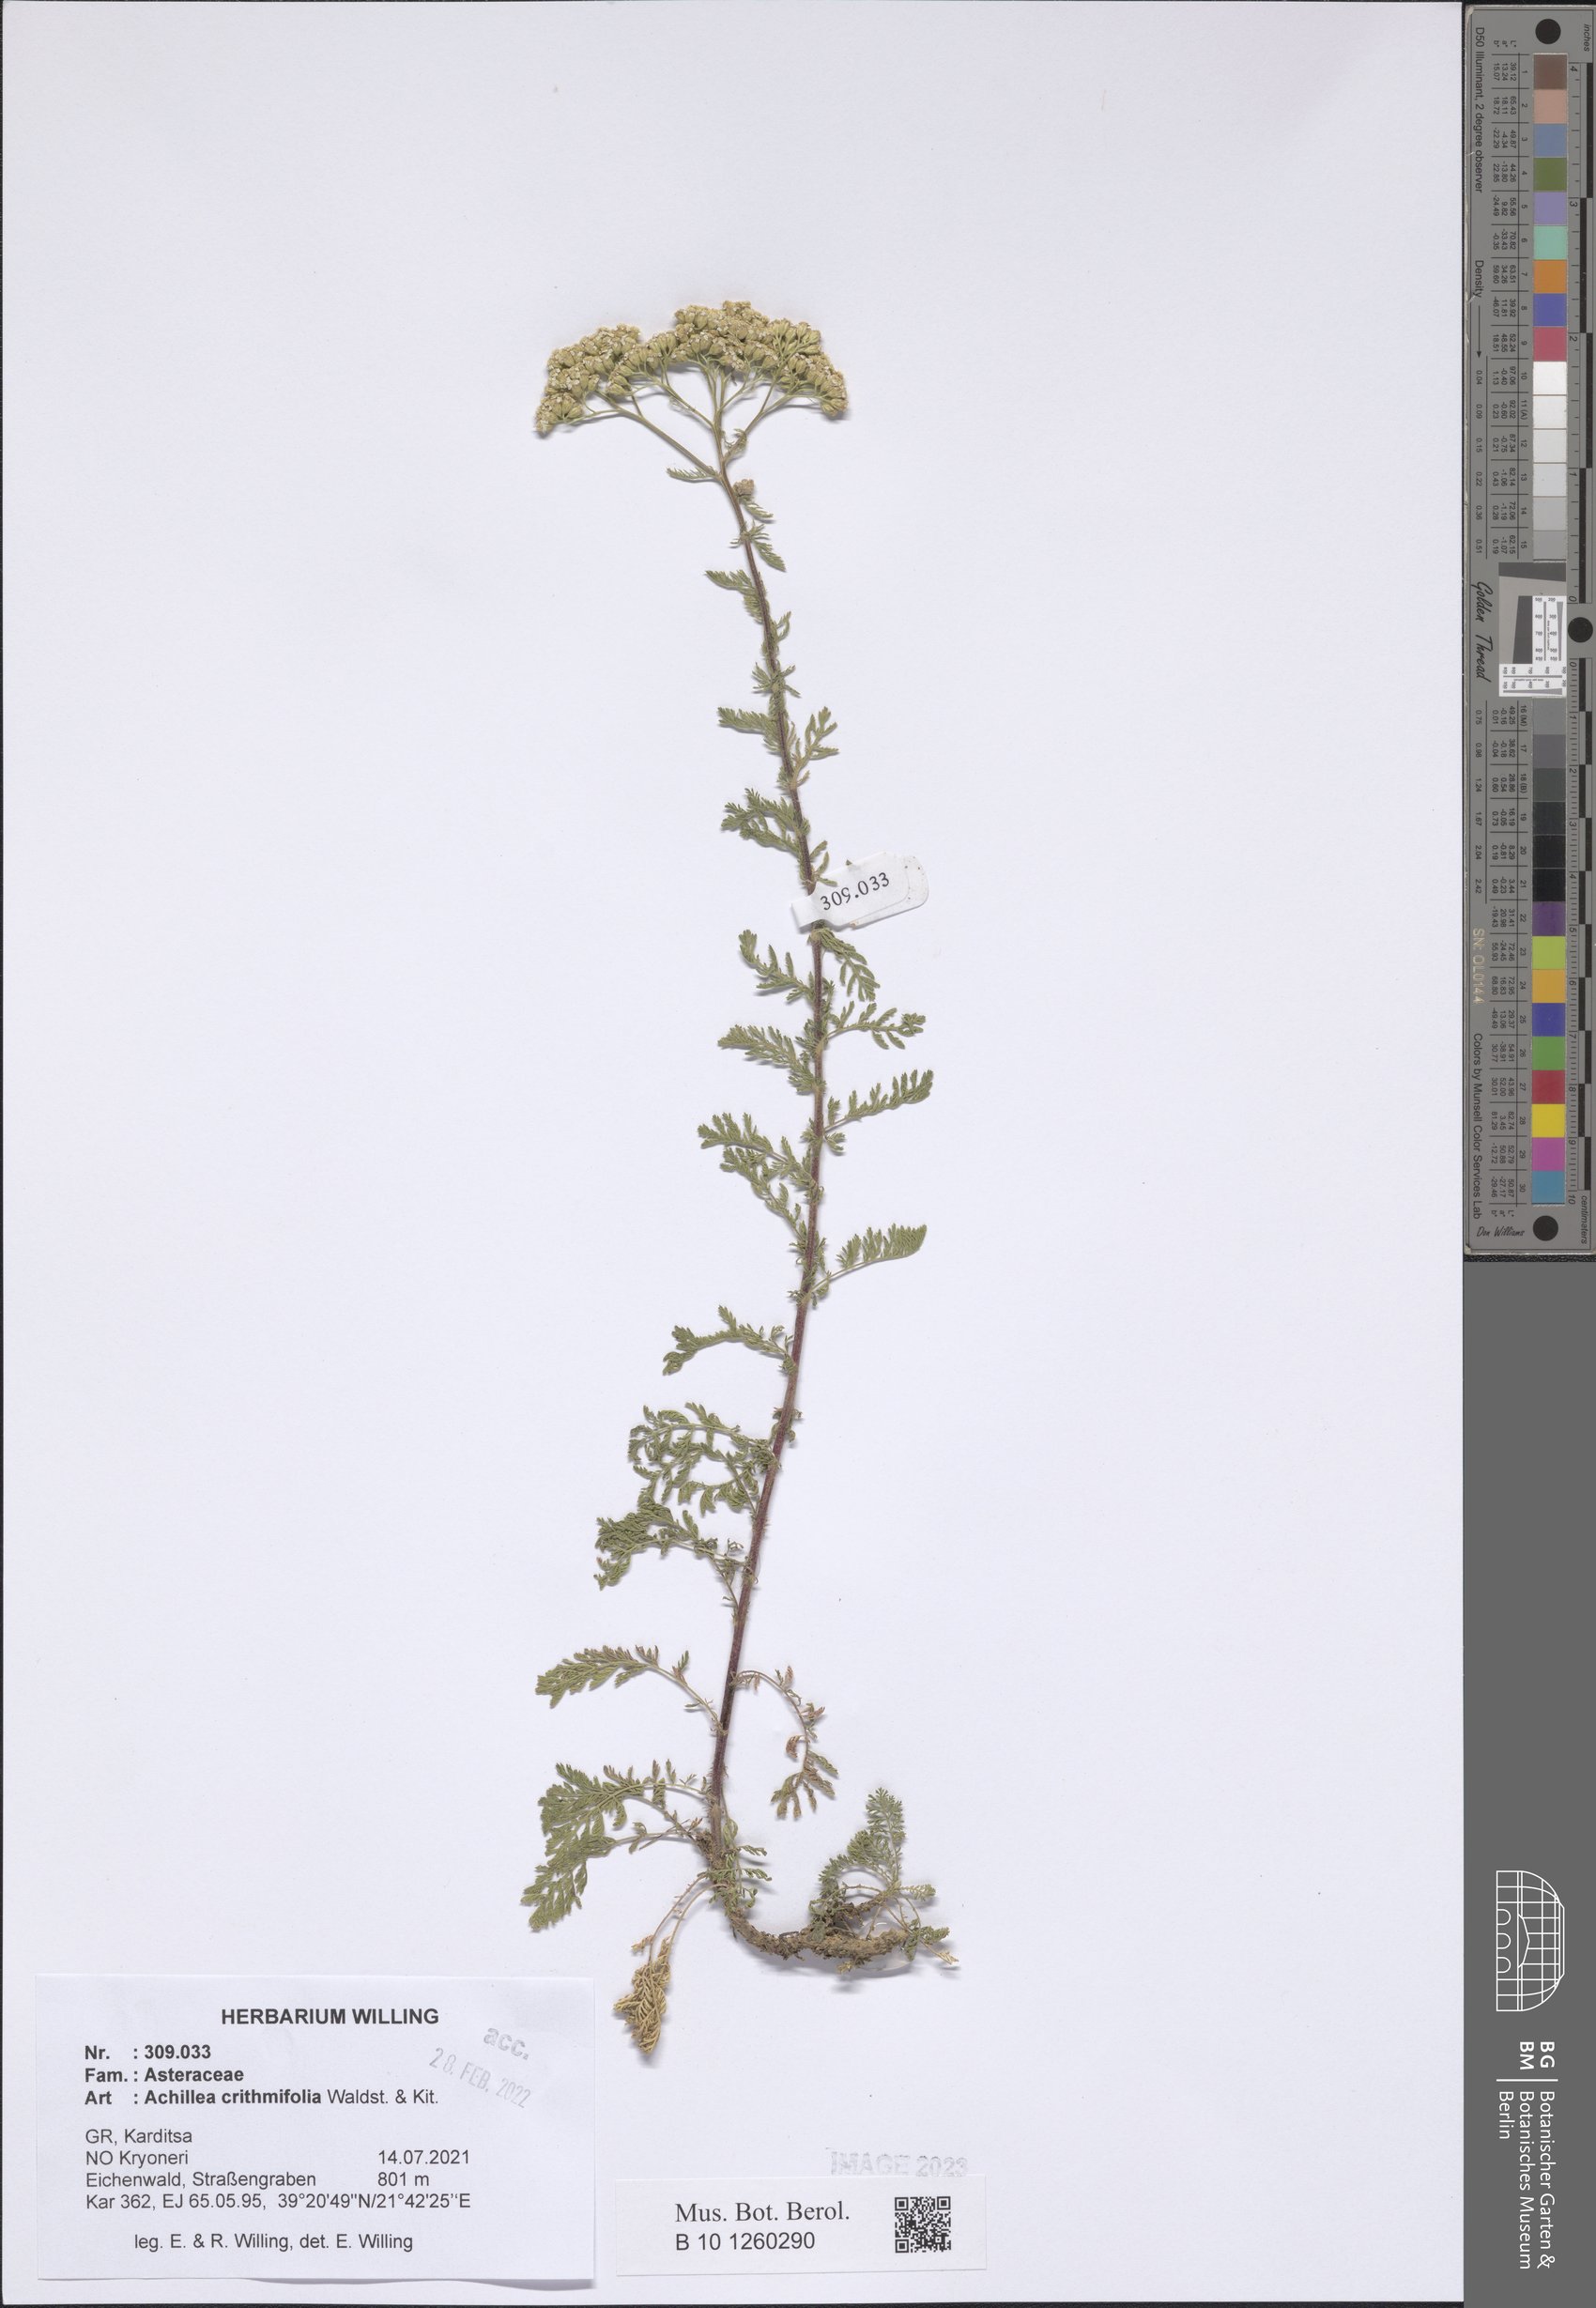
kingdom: Plantae
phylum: Tracheophyta
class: Magnoliopsida
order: Asterales
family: Asteraceae
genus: Achillea
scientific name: Achillea crithmifolia
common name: Yarrow
